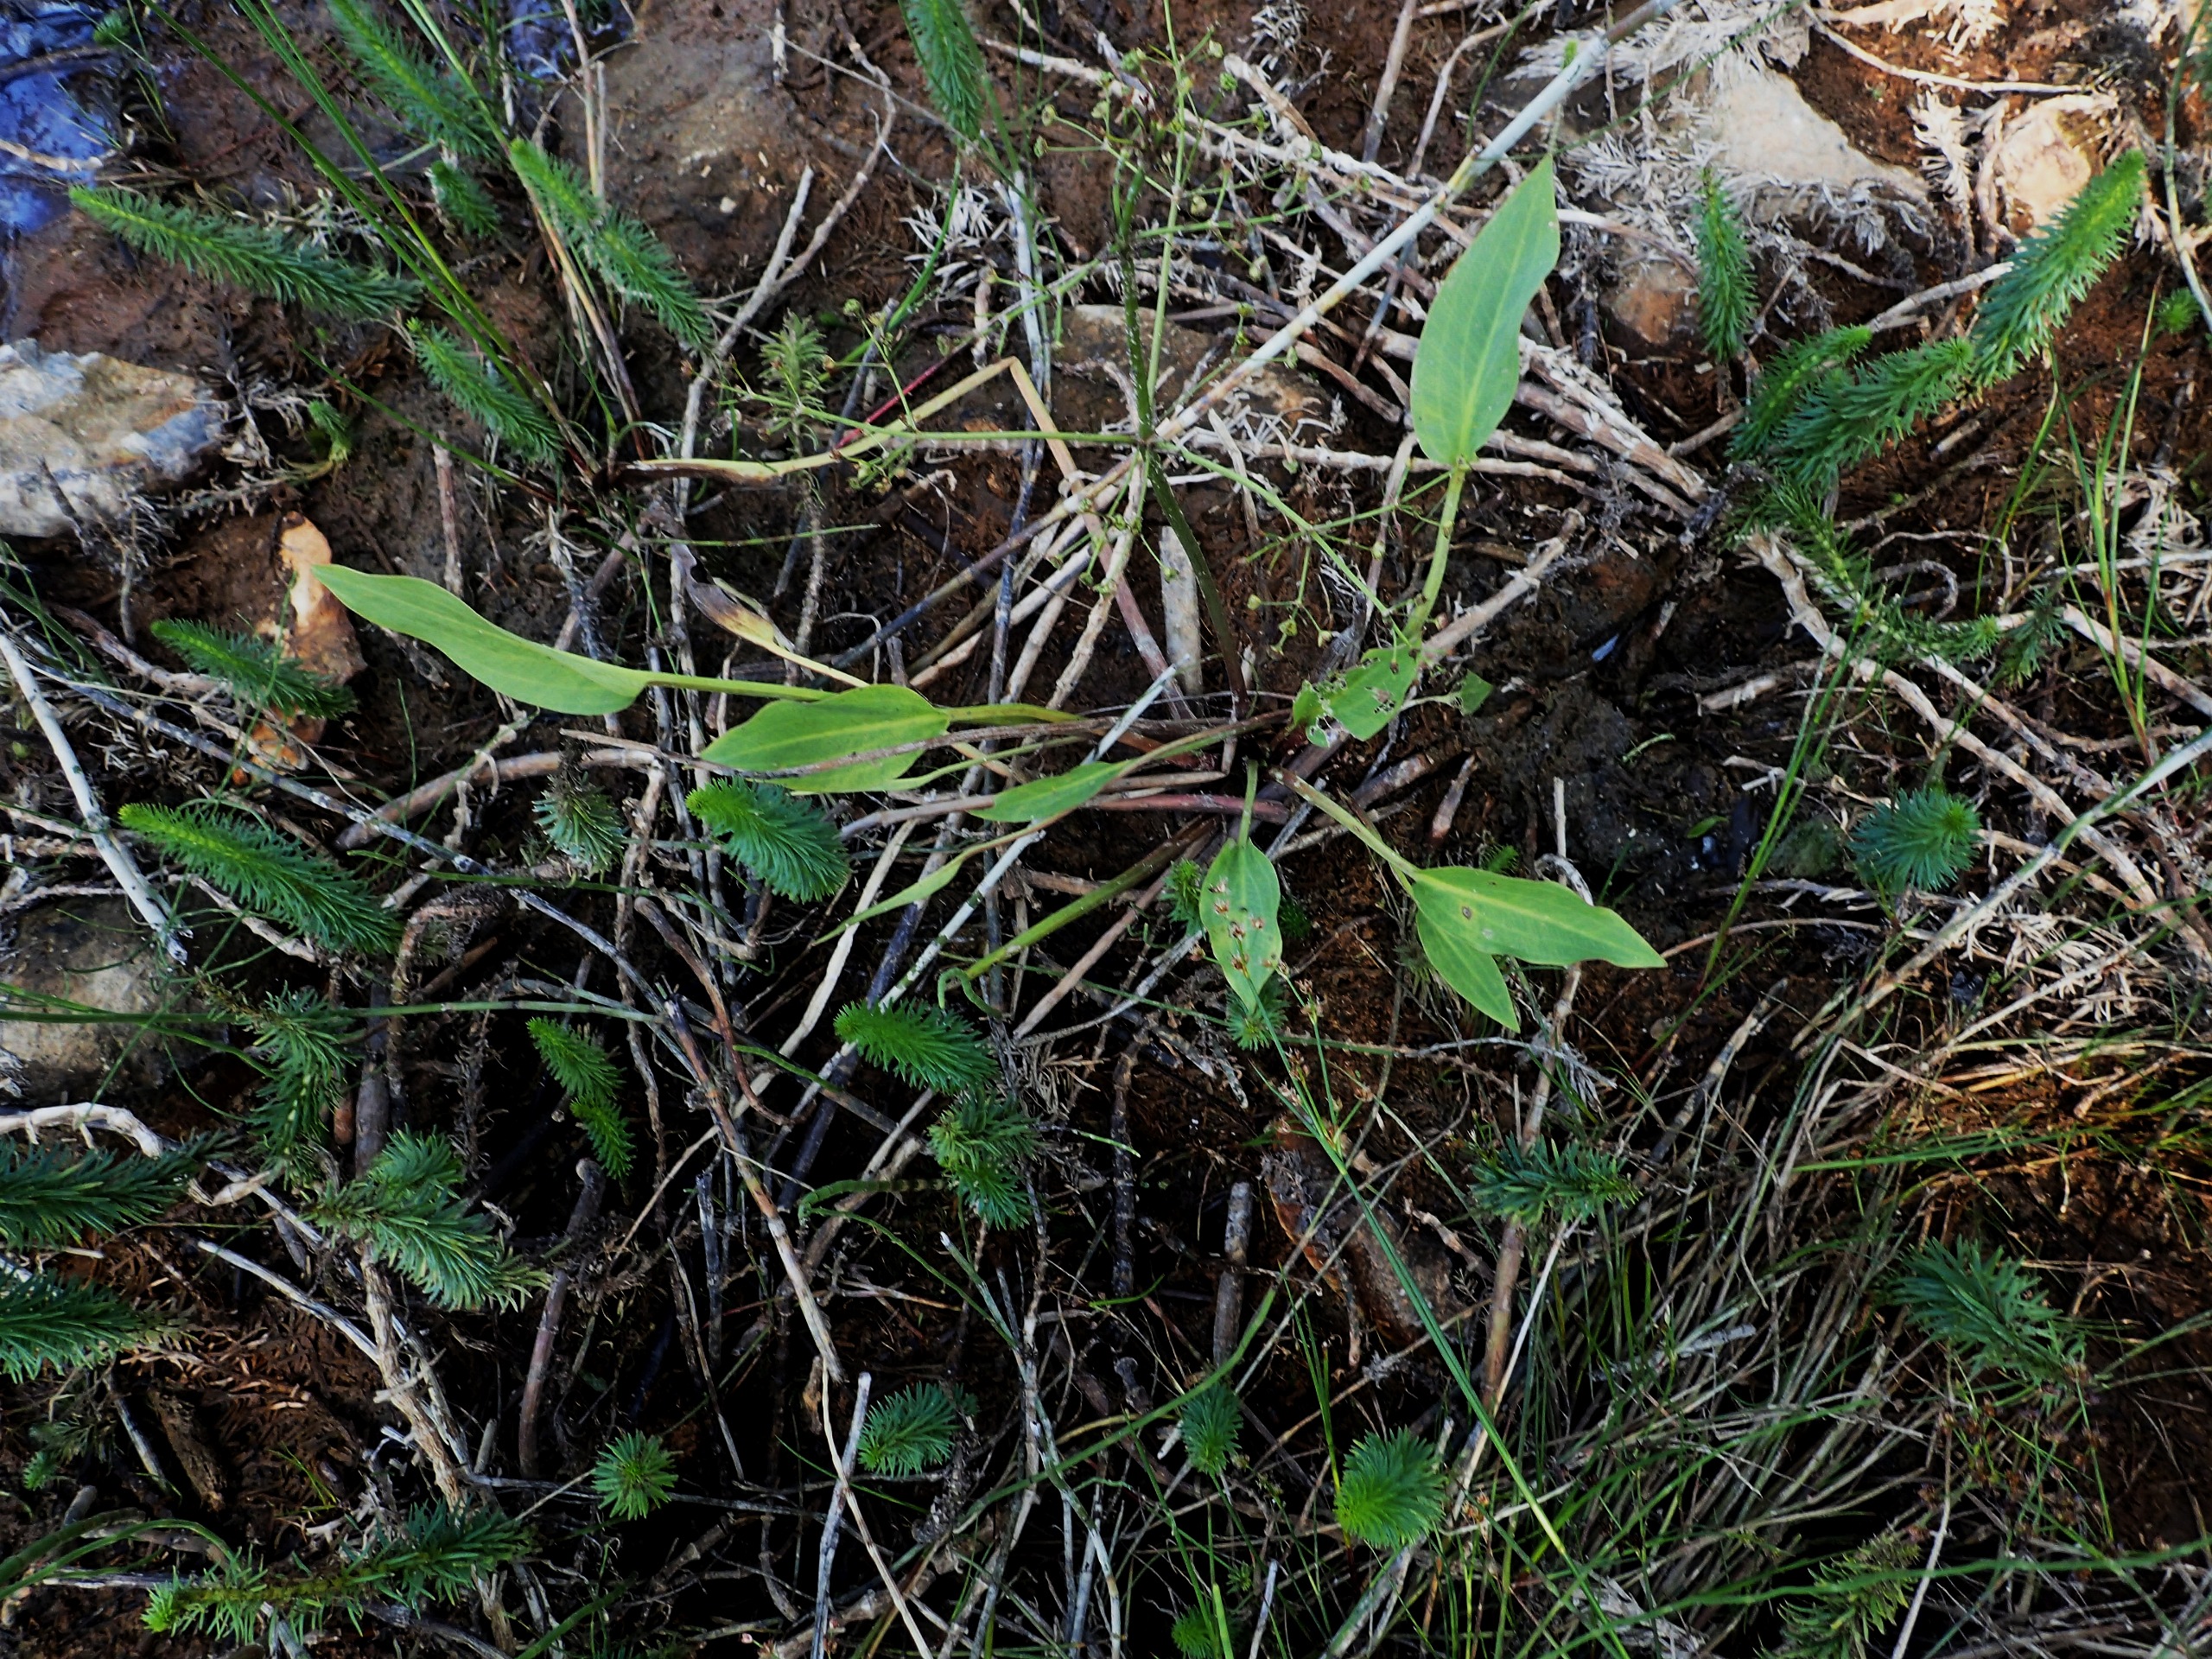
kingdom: Plantae
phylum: Tracheophyta
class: Liliopsida
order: Alismatales
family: Alismataceae
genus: Alisma
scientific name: Alisma plantago-aquatica
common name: Vejbred-skeblad
